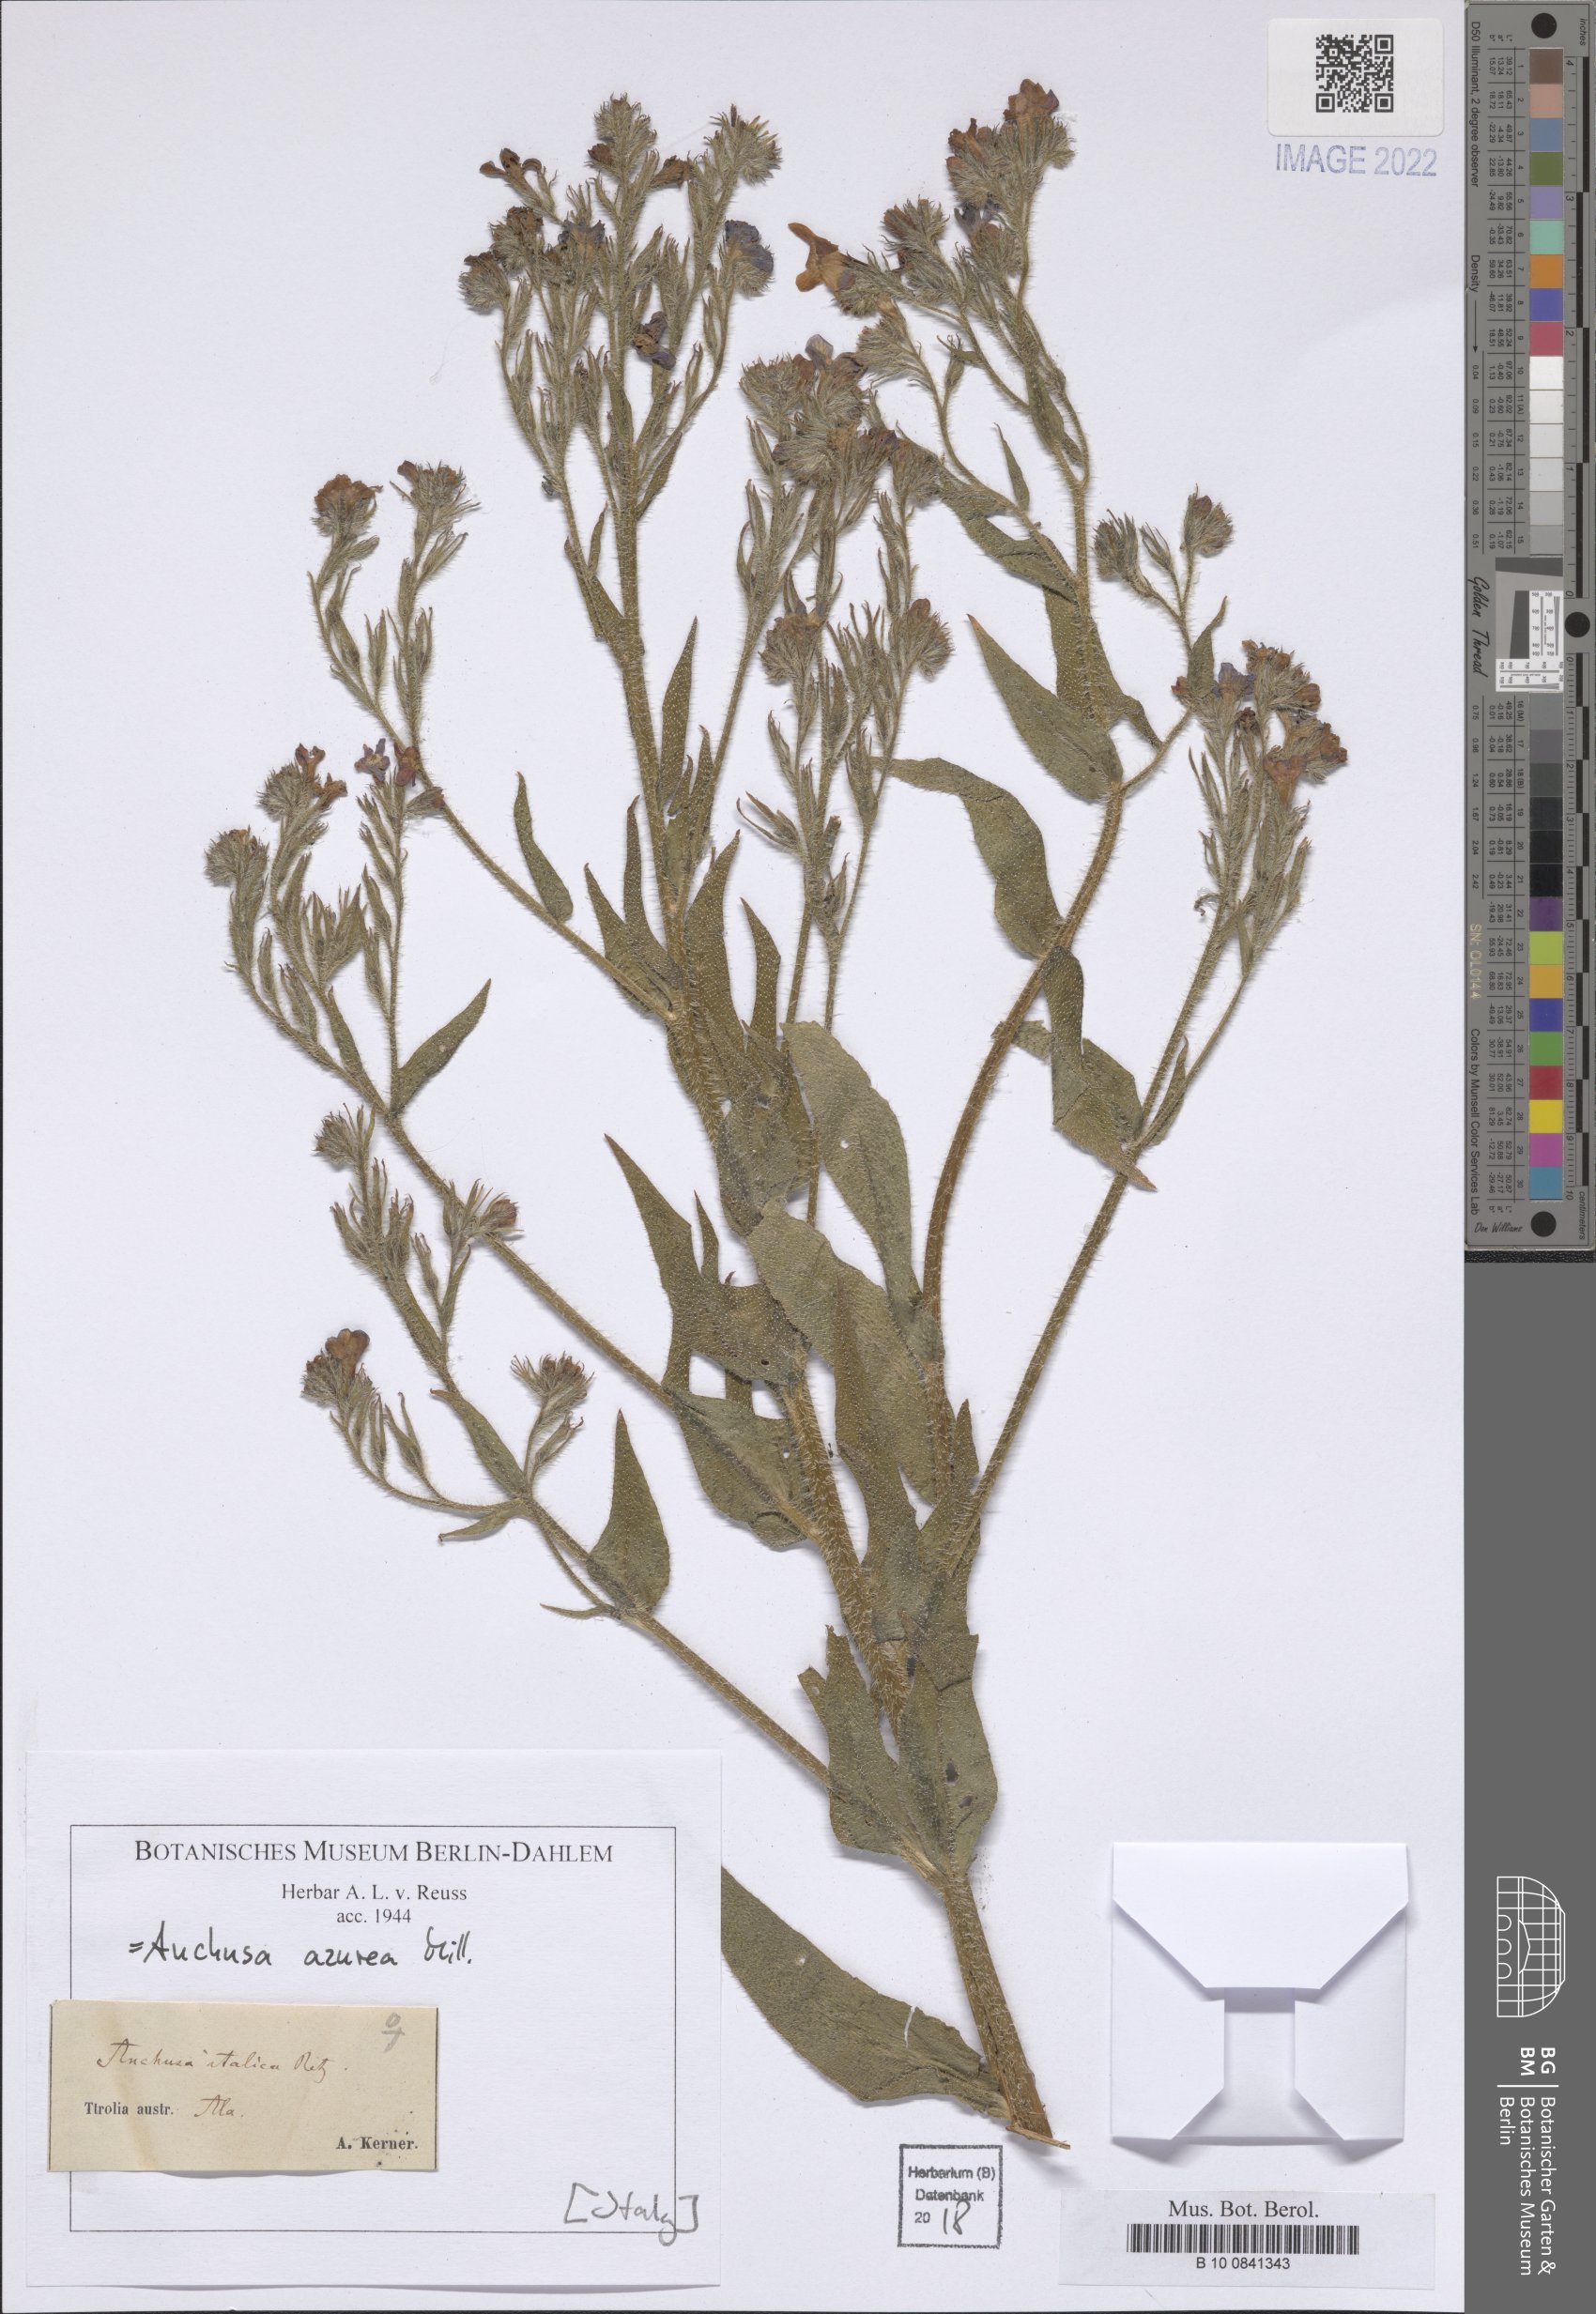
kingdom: Plantae
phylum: Tracheophyta
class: Magnoliopsida
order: Boraginales
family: Boraginaceae
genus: Anchusa
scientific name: Anchusa azurea
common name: Garden anchusa
